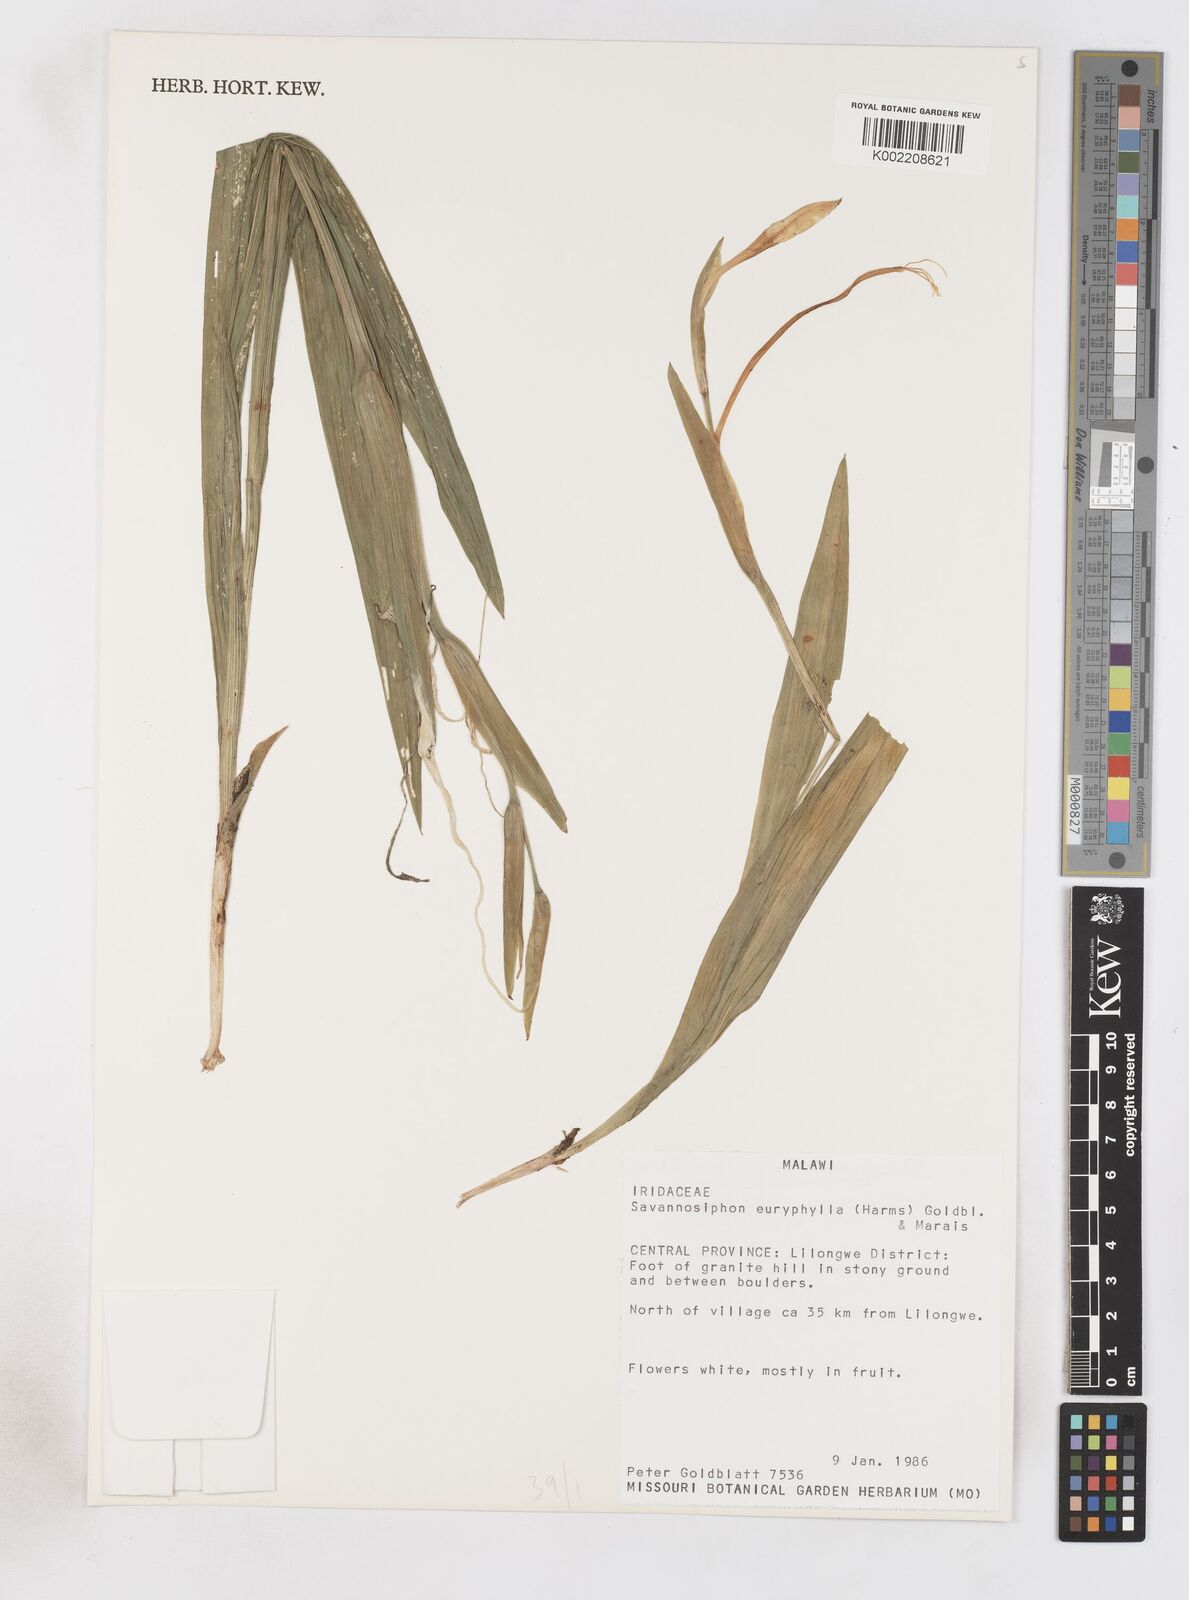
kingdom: Plantae
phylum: Tracheophyta
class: Liliopsida
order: Asparagales
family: Iridaceae
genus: Savannosiphon
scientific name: Savannosiphon euryphylla
